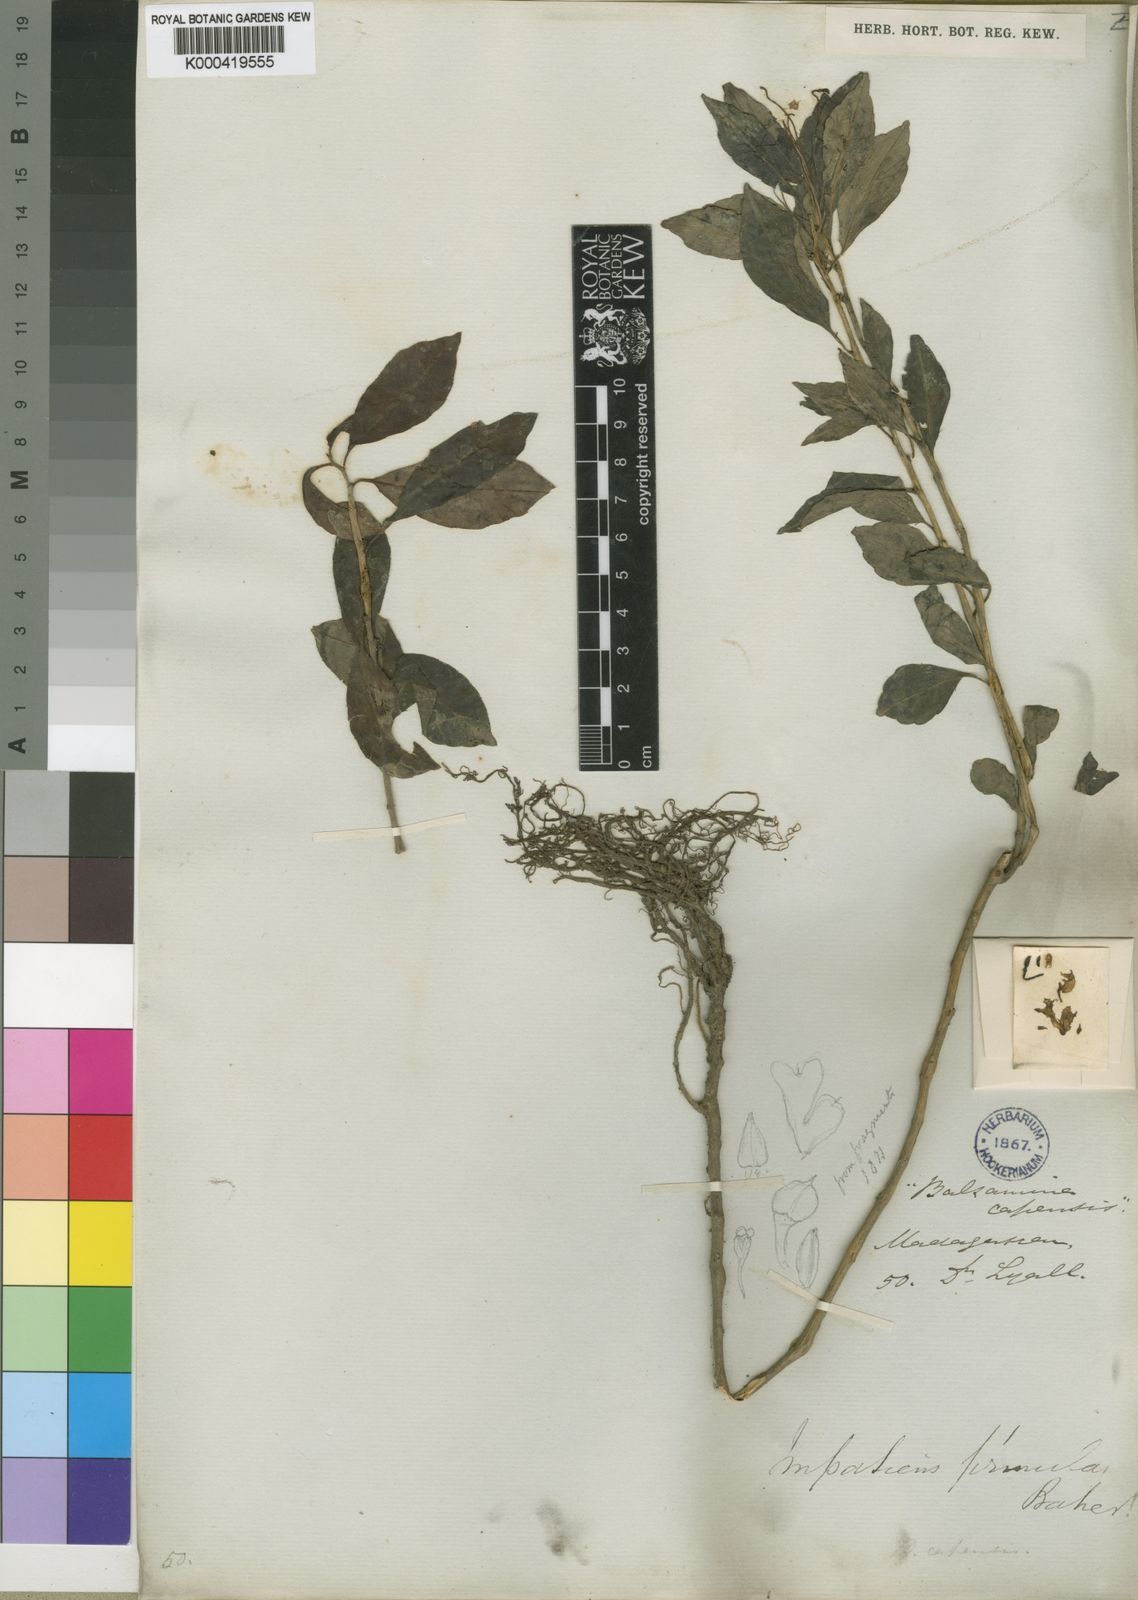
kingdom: Plantae
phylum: Tracheophyta
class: Magnoliopsida
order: Ericales
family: Balsaminaceae
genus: Impatiens
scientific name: Impatiens firmula
